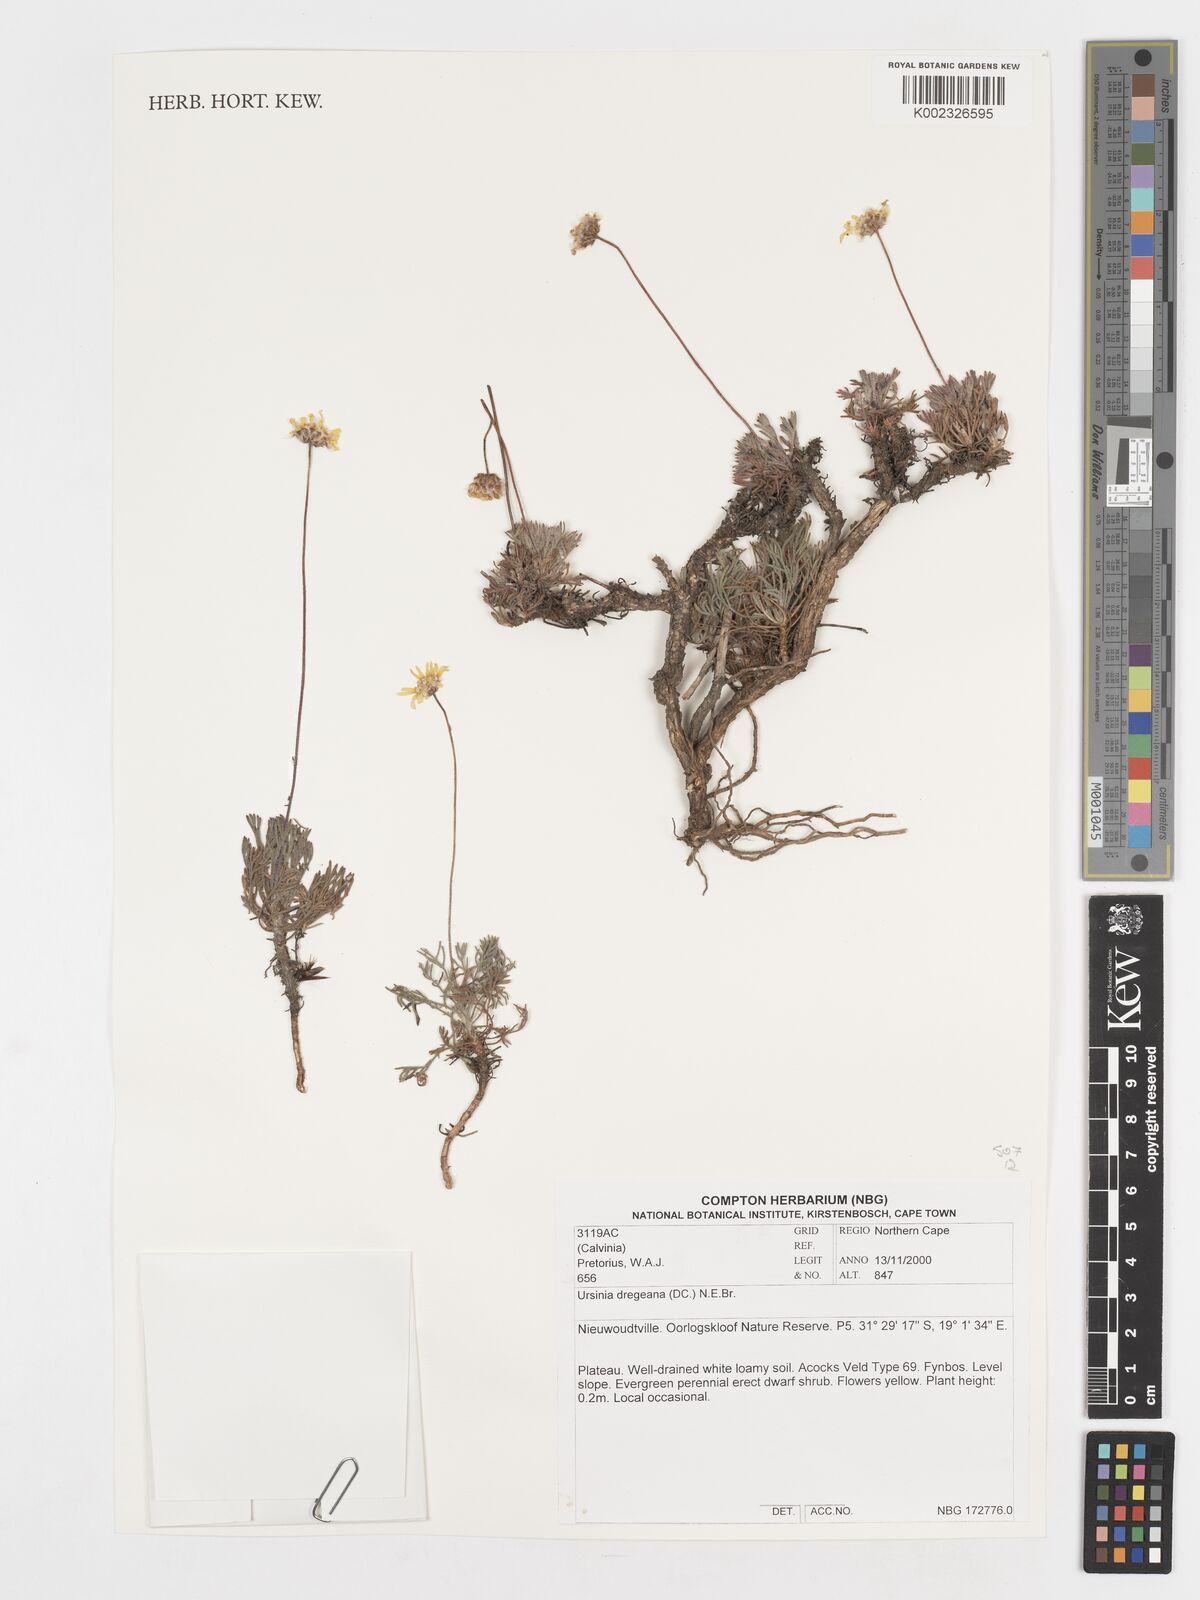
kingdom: Plantae
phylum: Tracheophyta
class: Magnoliopsida
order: Asterales
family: Asteraceae
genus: Ursinia
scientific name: Ursinia dregeana
